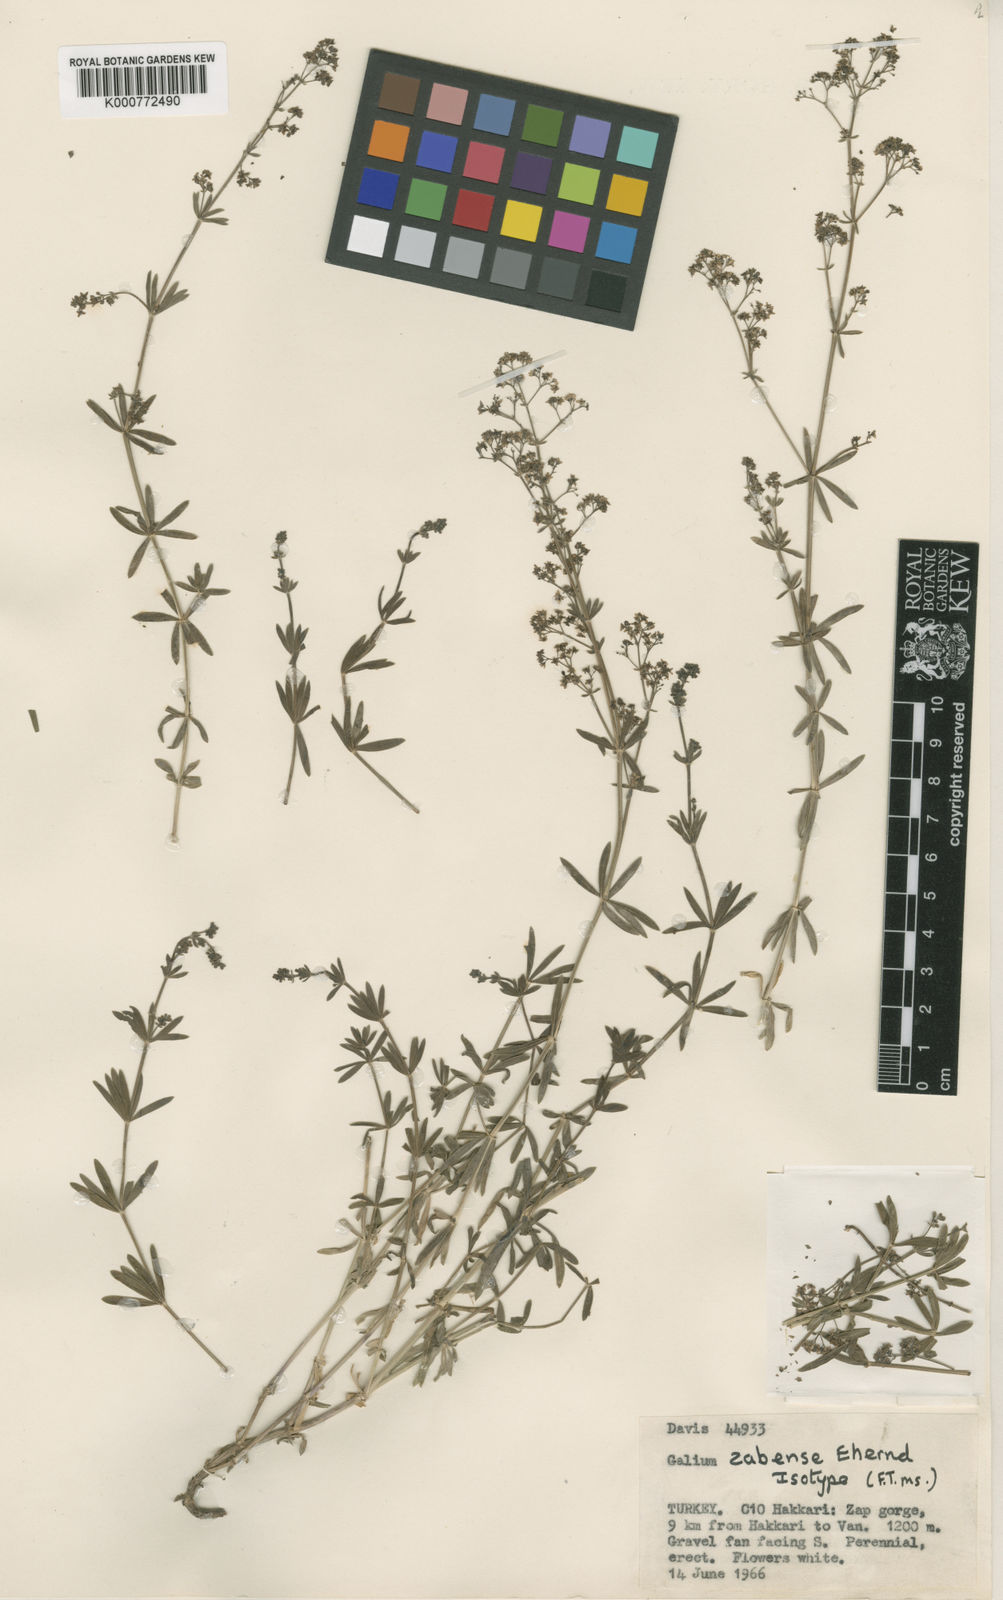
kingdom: Plantae
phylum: Tracheophyta
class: Magnoliopsida
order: Gentianales
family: Rubiaceae
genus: Galium
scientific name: Galium zabense
